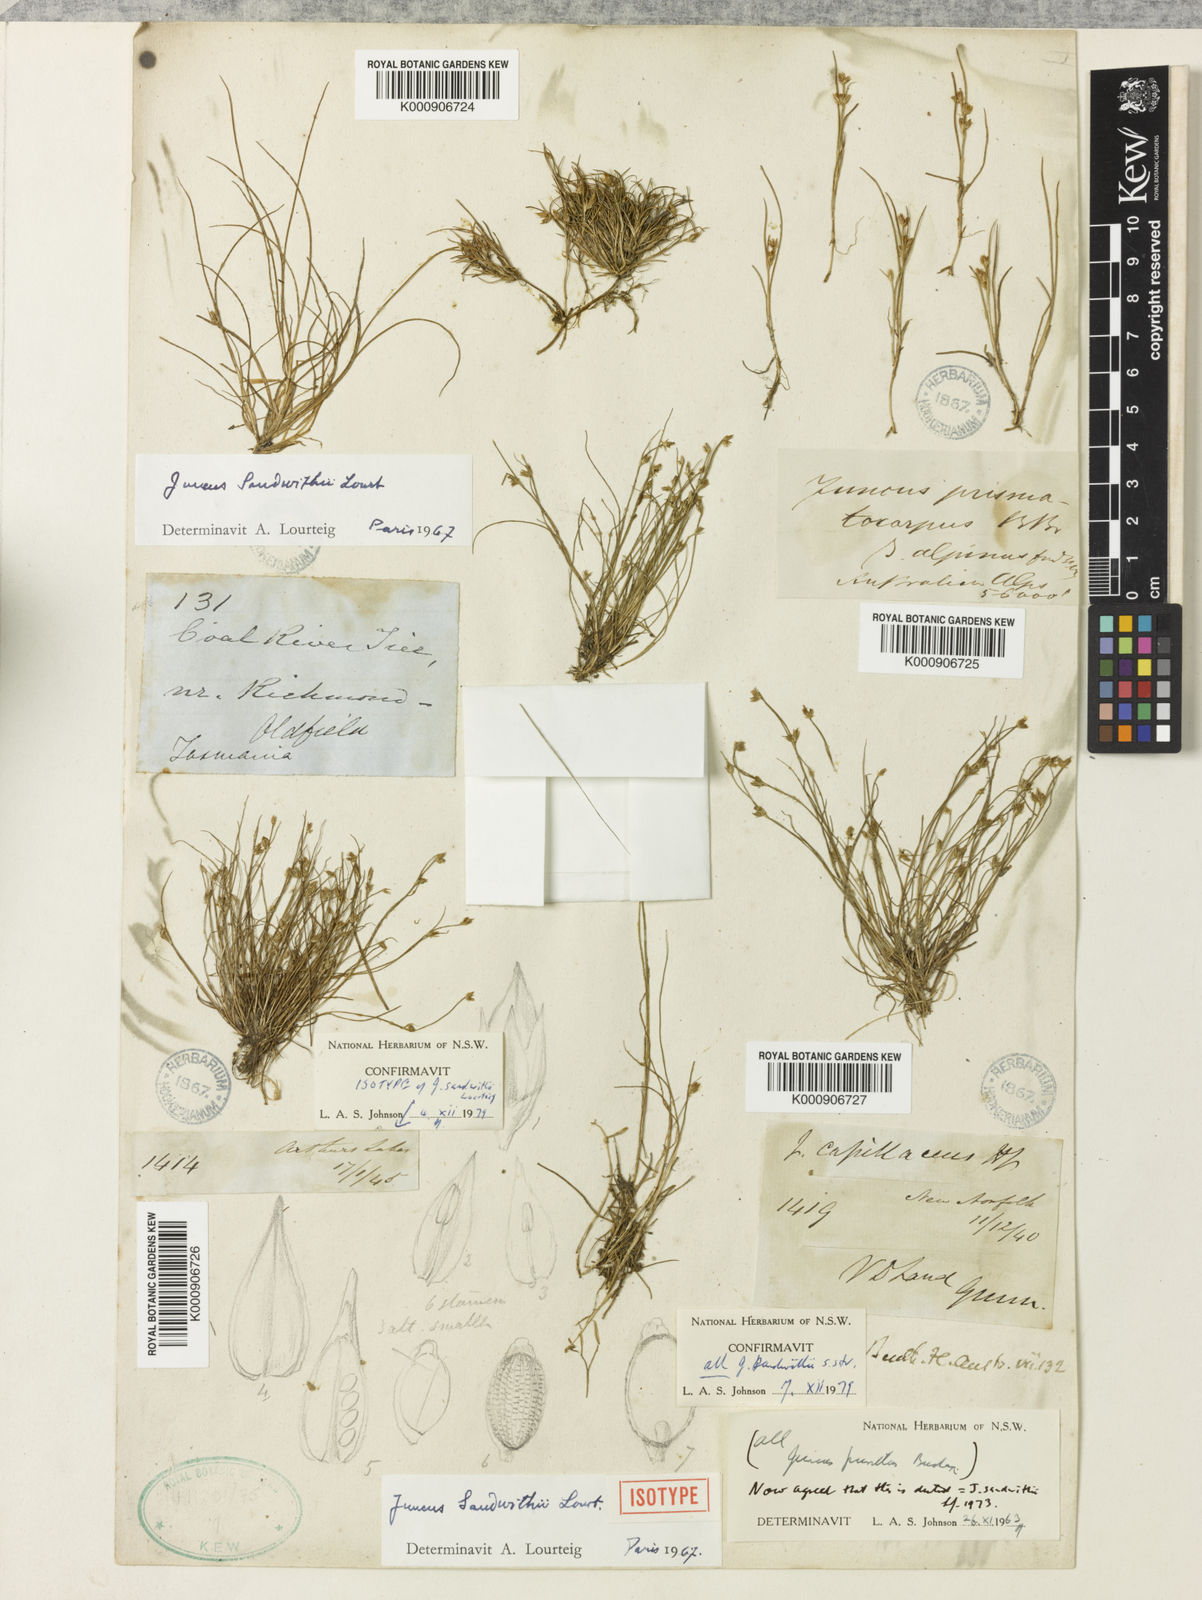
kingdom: Plantae
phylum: Tracheophyta
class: Liliopsida
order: Poales
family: Juncaceae
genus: Juncus
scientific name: Juncus sandwithii
